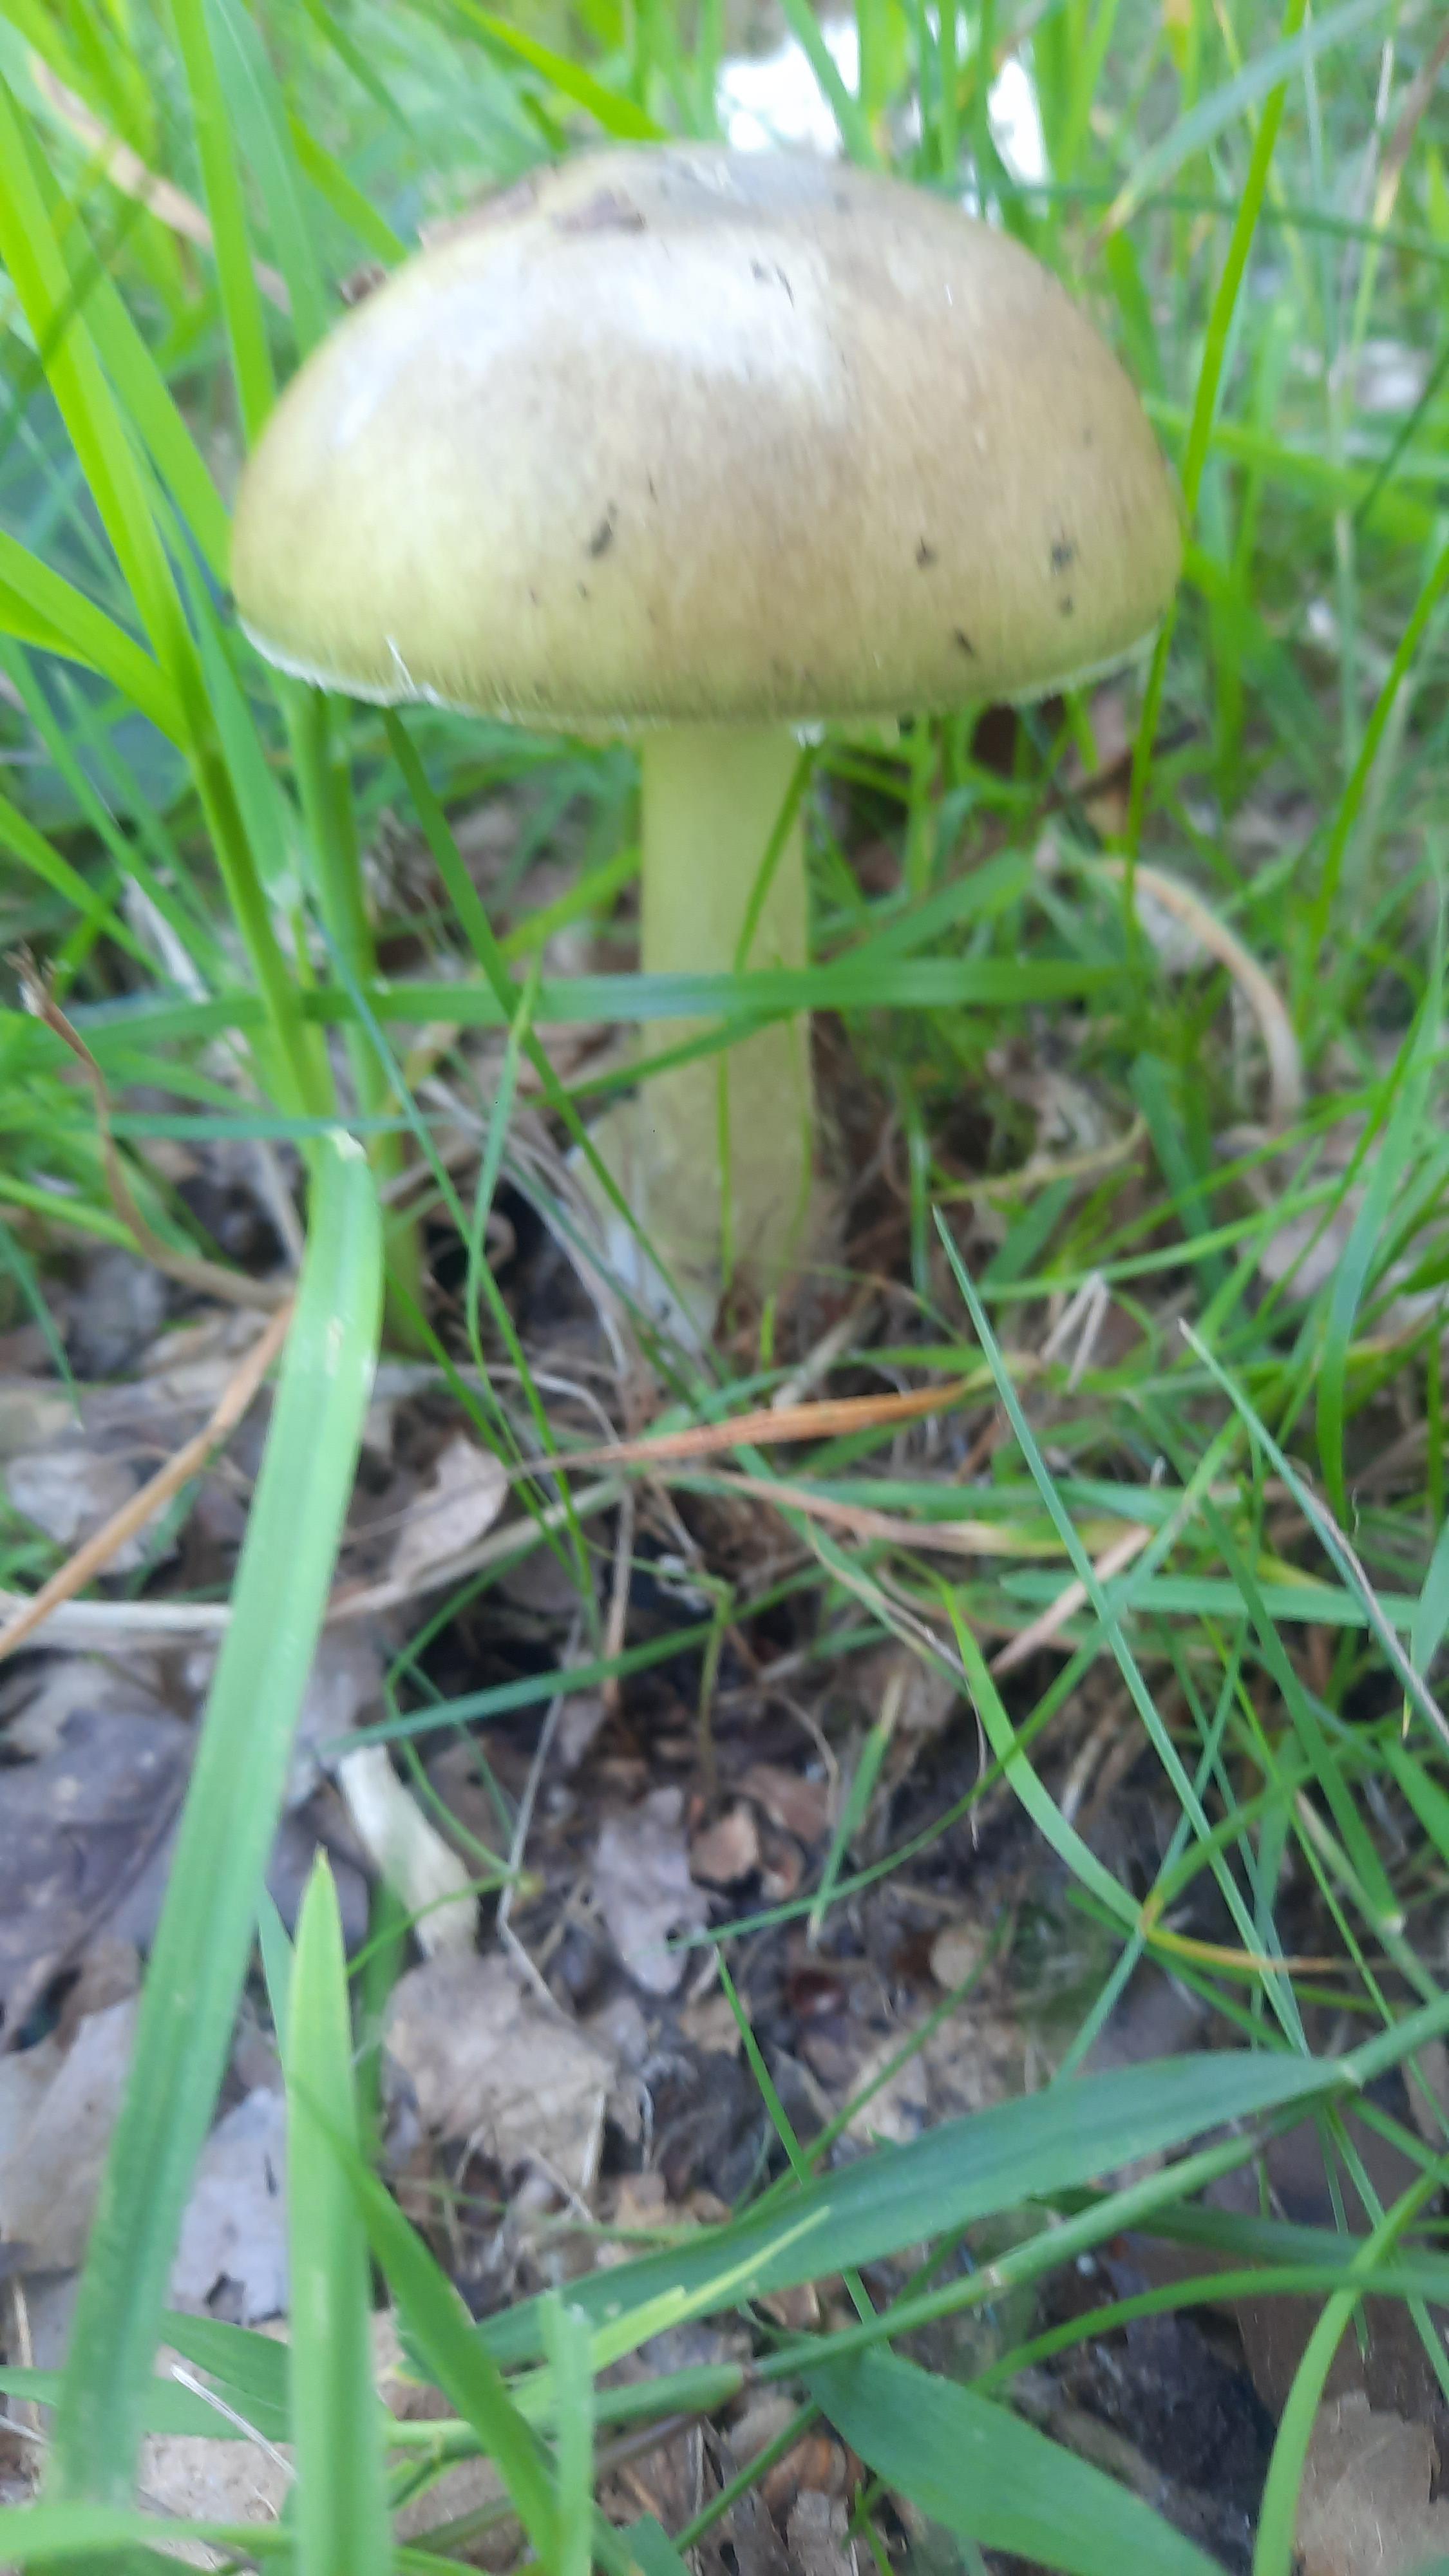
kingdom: Fungi
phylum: Basidiomycota
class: Agaricomycetes
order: Agaricales
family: Amanitaceae
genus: Amanita
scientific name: Amanita phalloides
